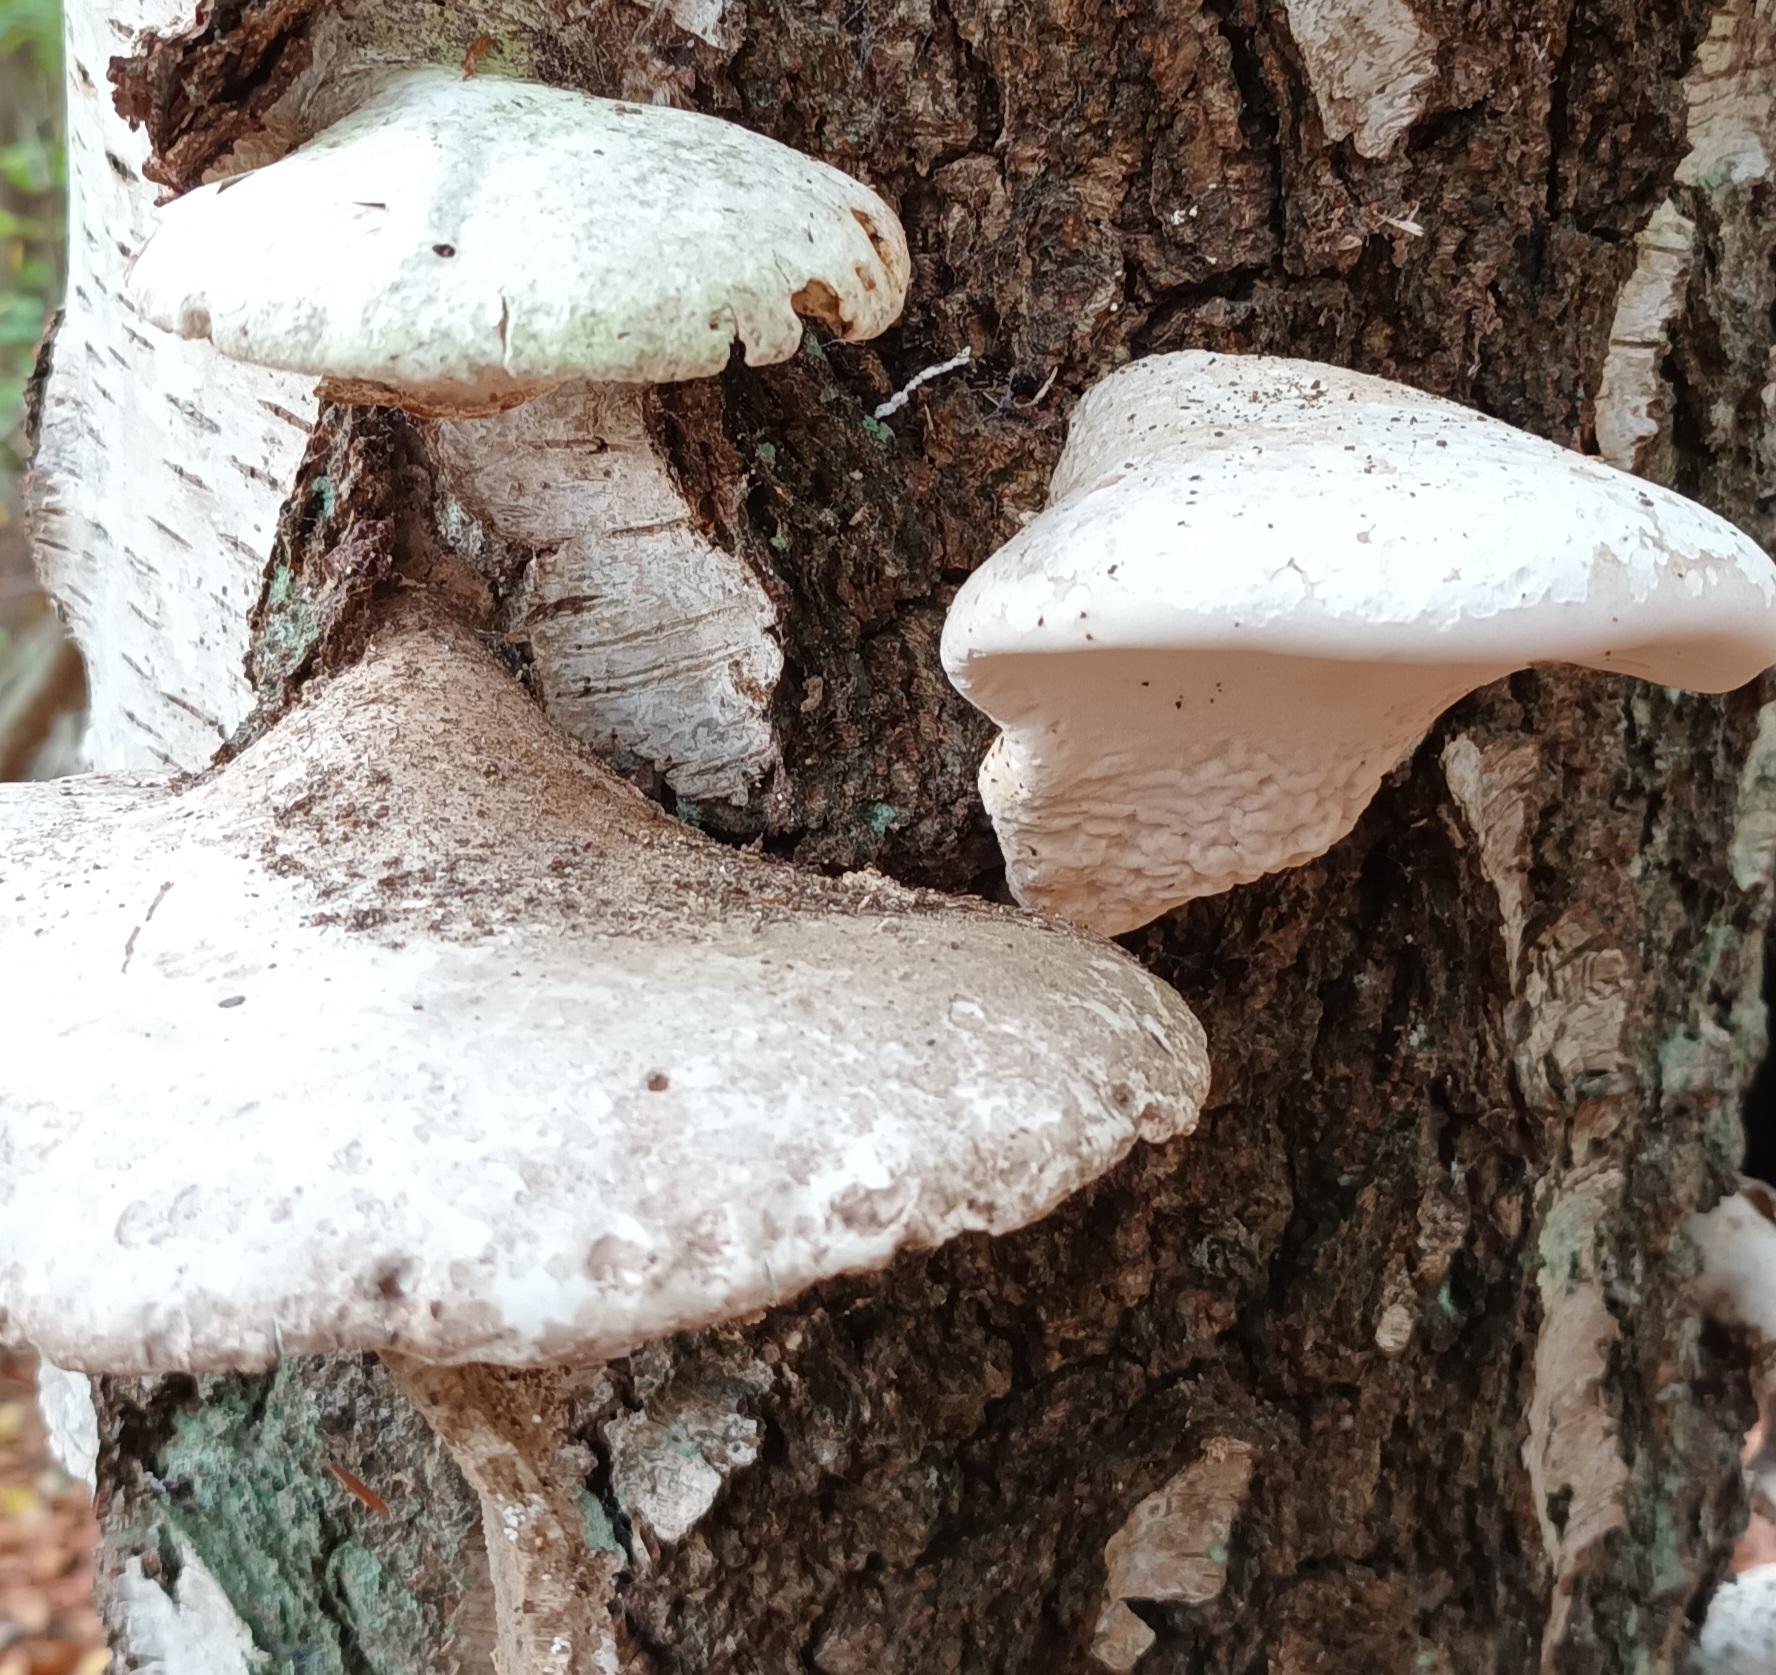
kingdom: Fungi
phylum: Basidiomycota
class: Agaricomycetes
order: Polyporales
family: Fomitopsidaceae
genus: Fomitopsis
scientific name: Fomitopsis betulina
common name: Birkeporesvamp
